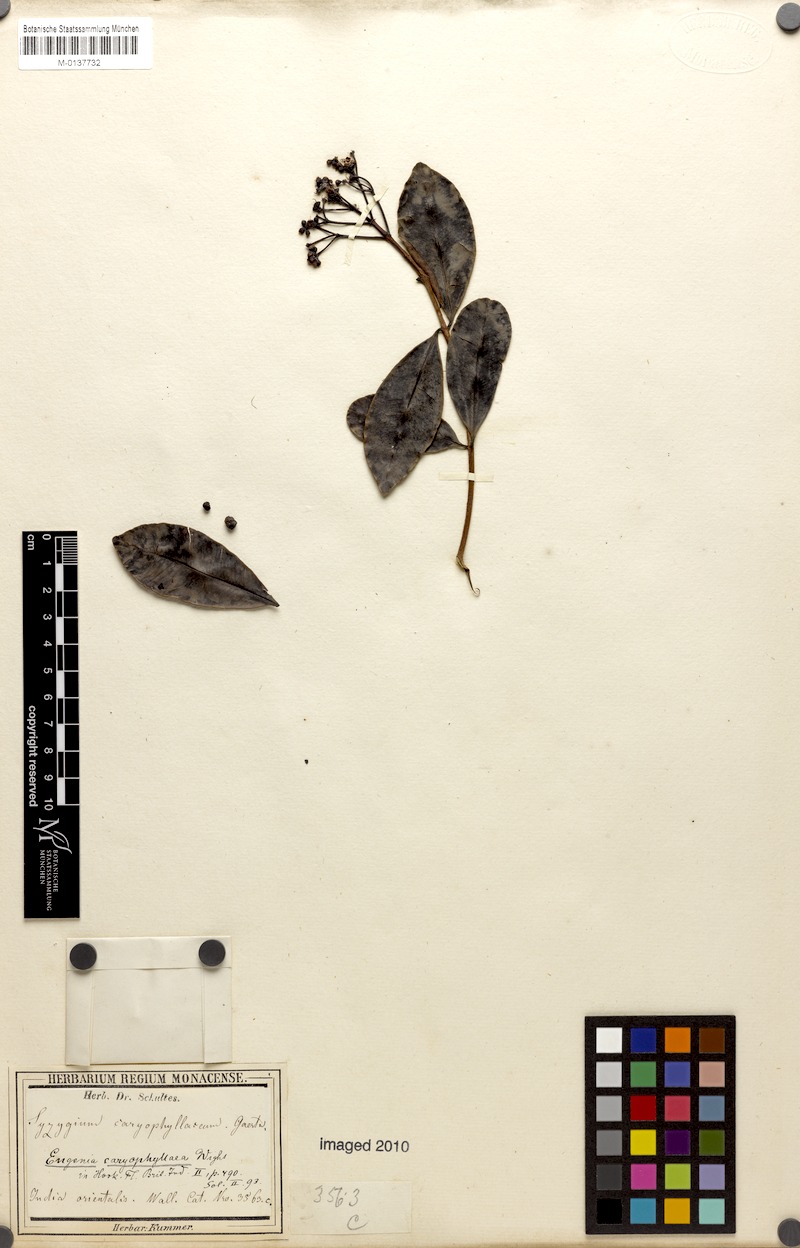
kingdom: Plantae
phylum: Tracheophyta
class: Magnoliopsida
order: Myrtales
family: Myrtaceae
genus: Syzygium
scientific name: Syzygium caryophyllatum
